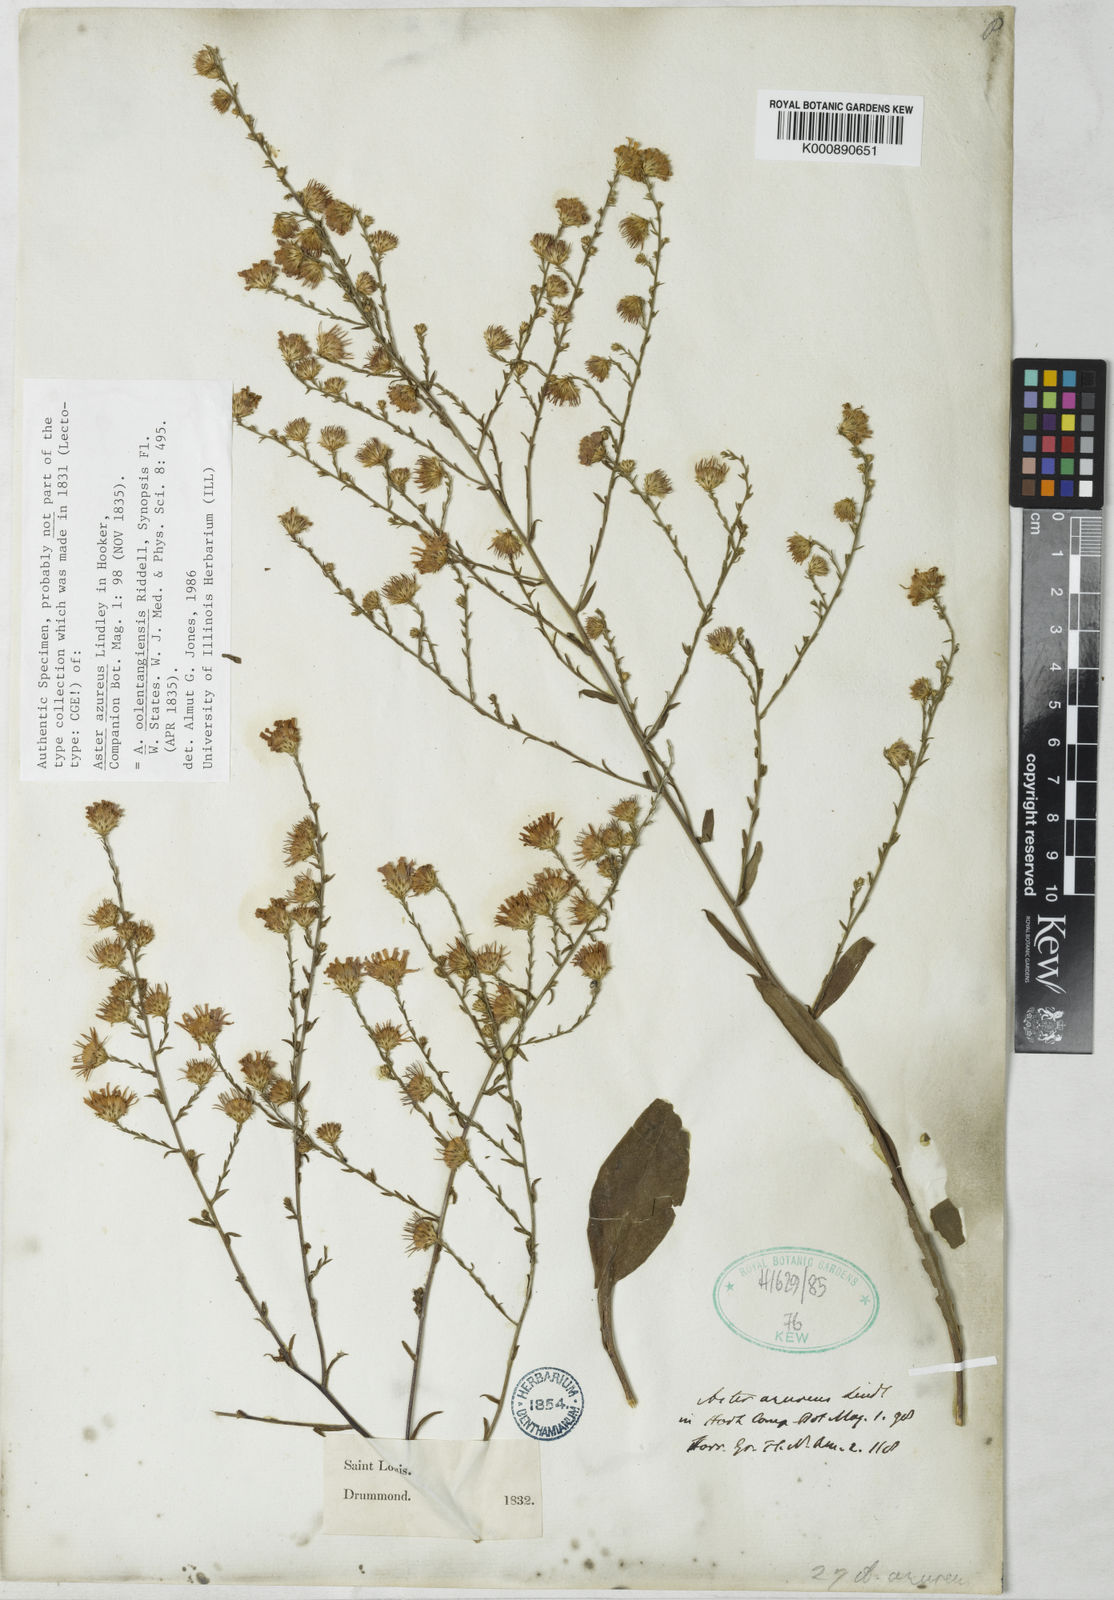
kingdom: Plantae
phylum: Tracheophyta
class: Magnoliopsida
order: Asterales
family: Asteraceae
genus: Symphyotrichum
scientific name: Symphyotrichum oolentangiense
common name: Azure aster
